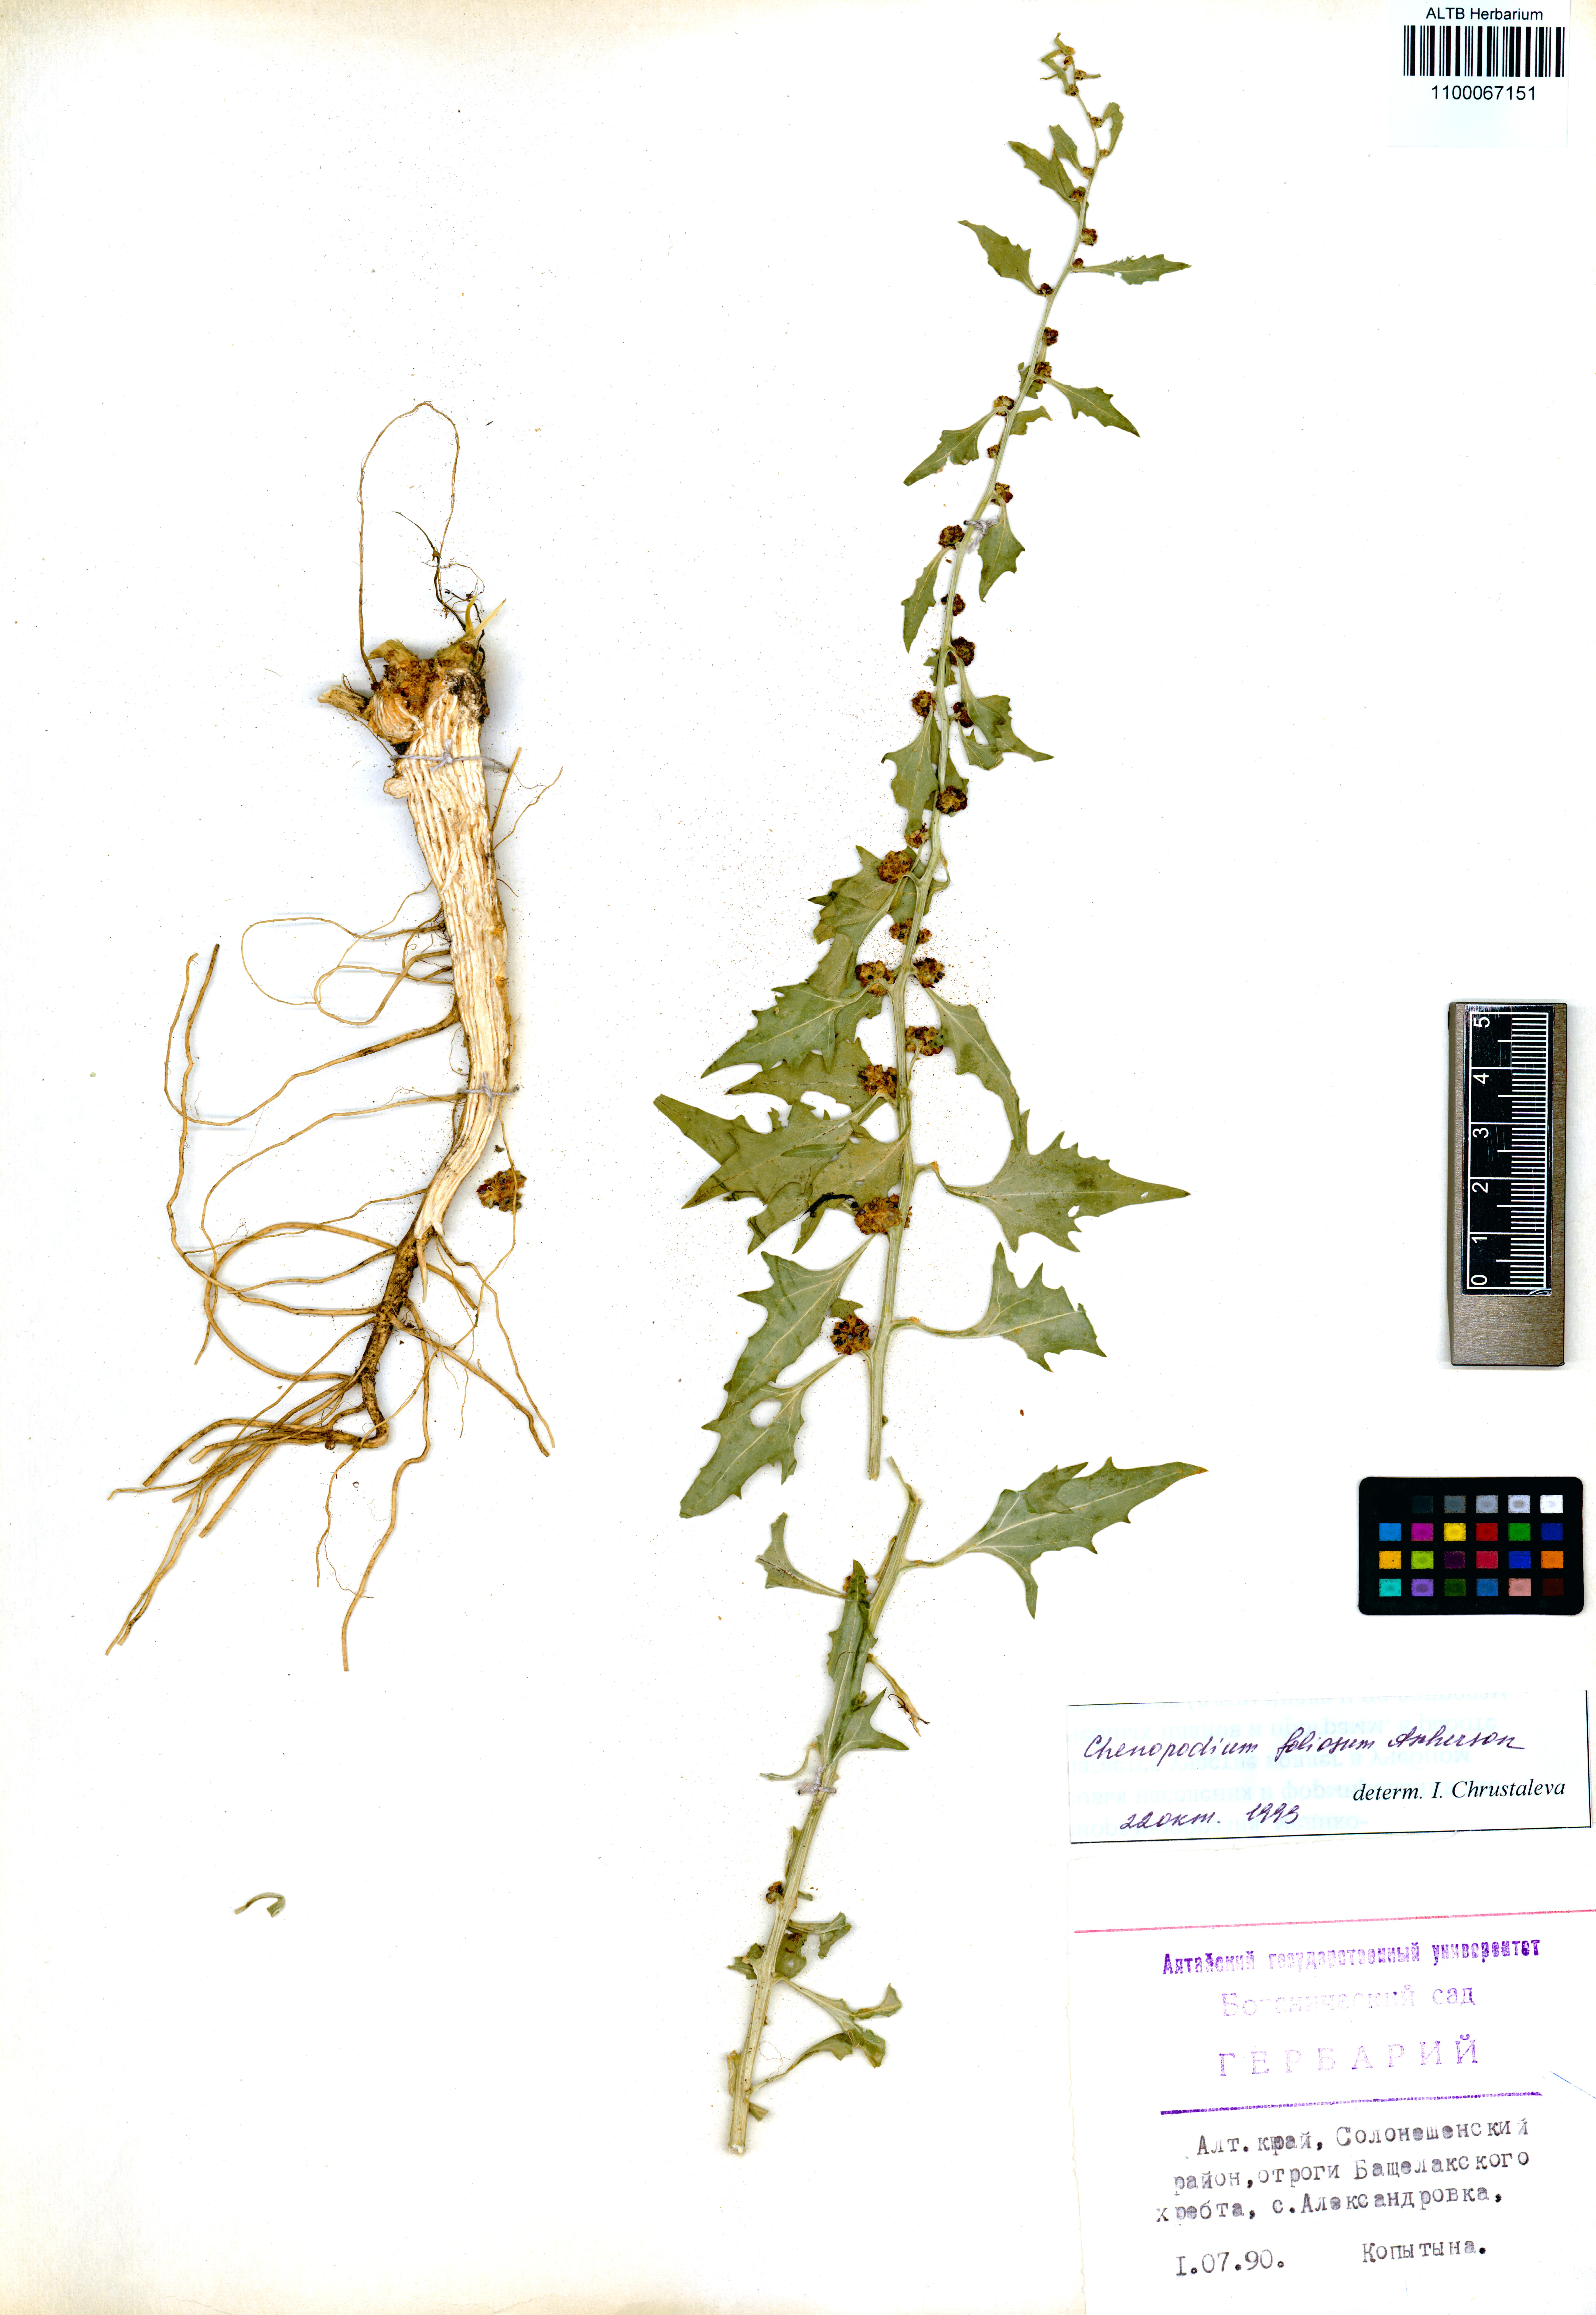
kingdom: Plantae
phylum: Tracheophyta
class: Magnoliopsida
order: Caryophyllales
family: Amaranthaceae
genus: Blitum
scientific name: Blitum virgatum
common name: Strawberry goosefoot
